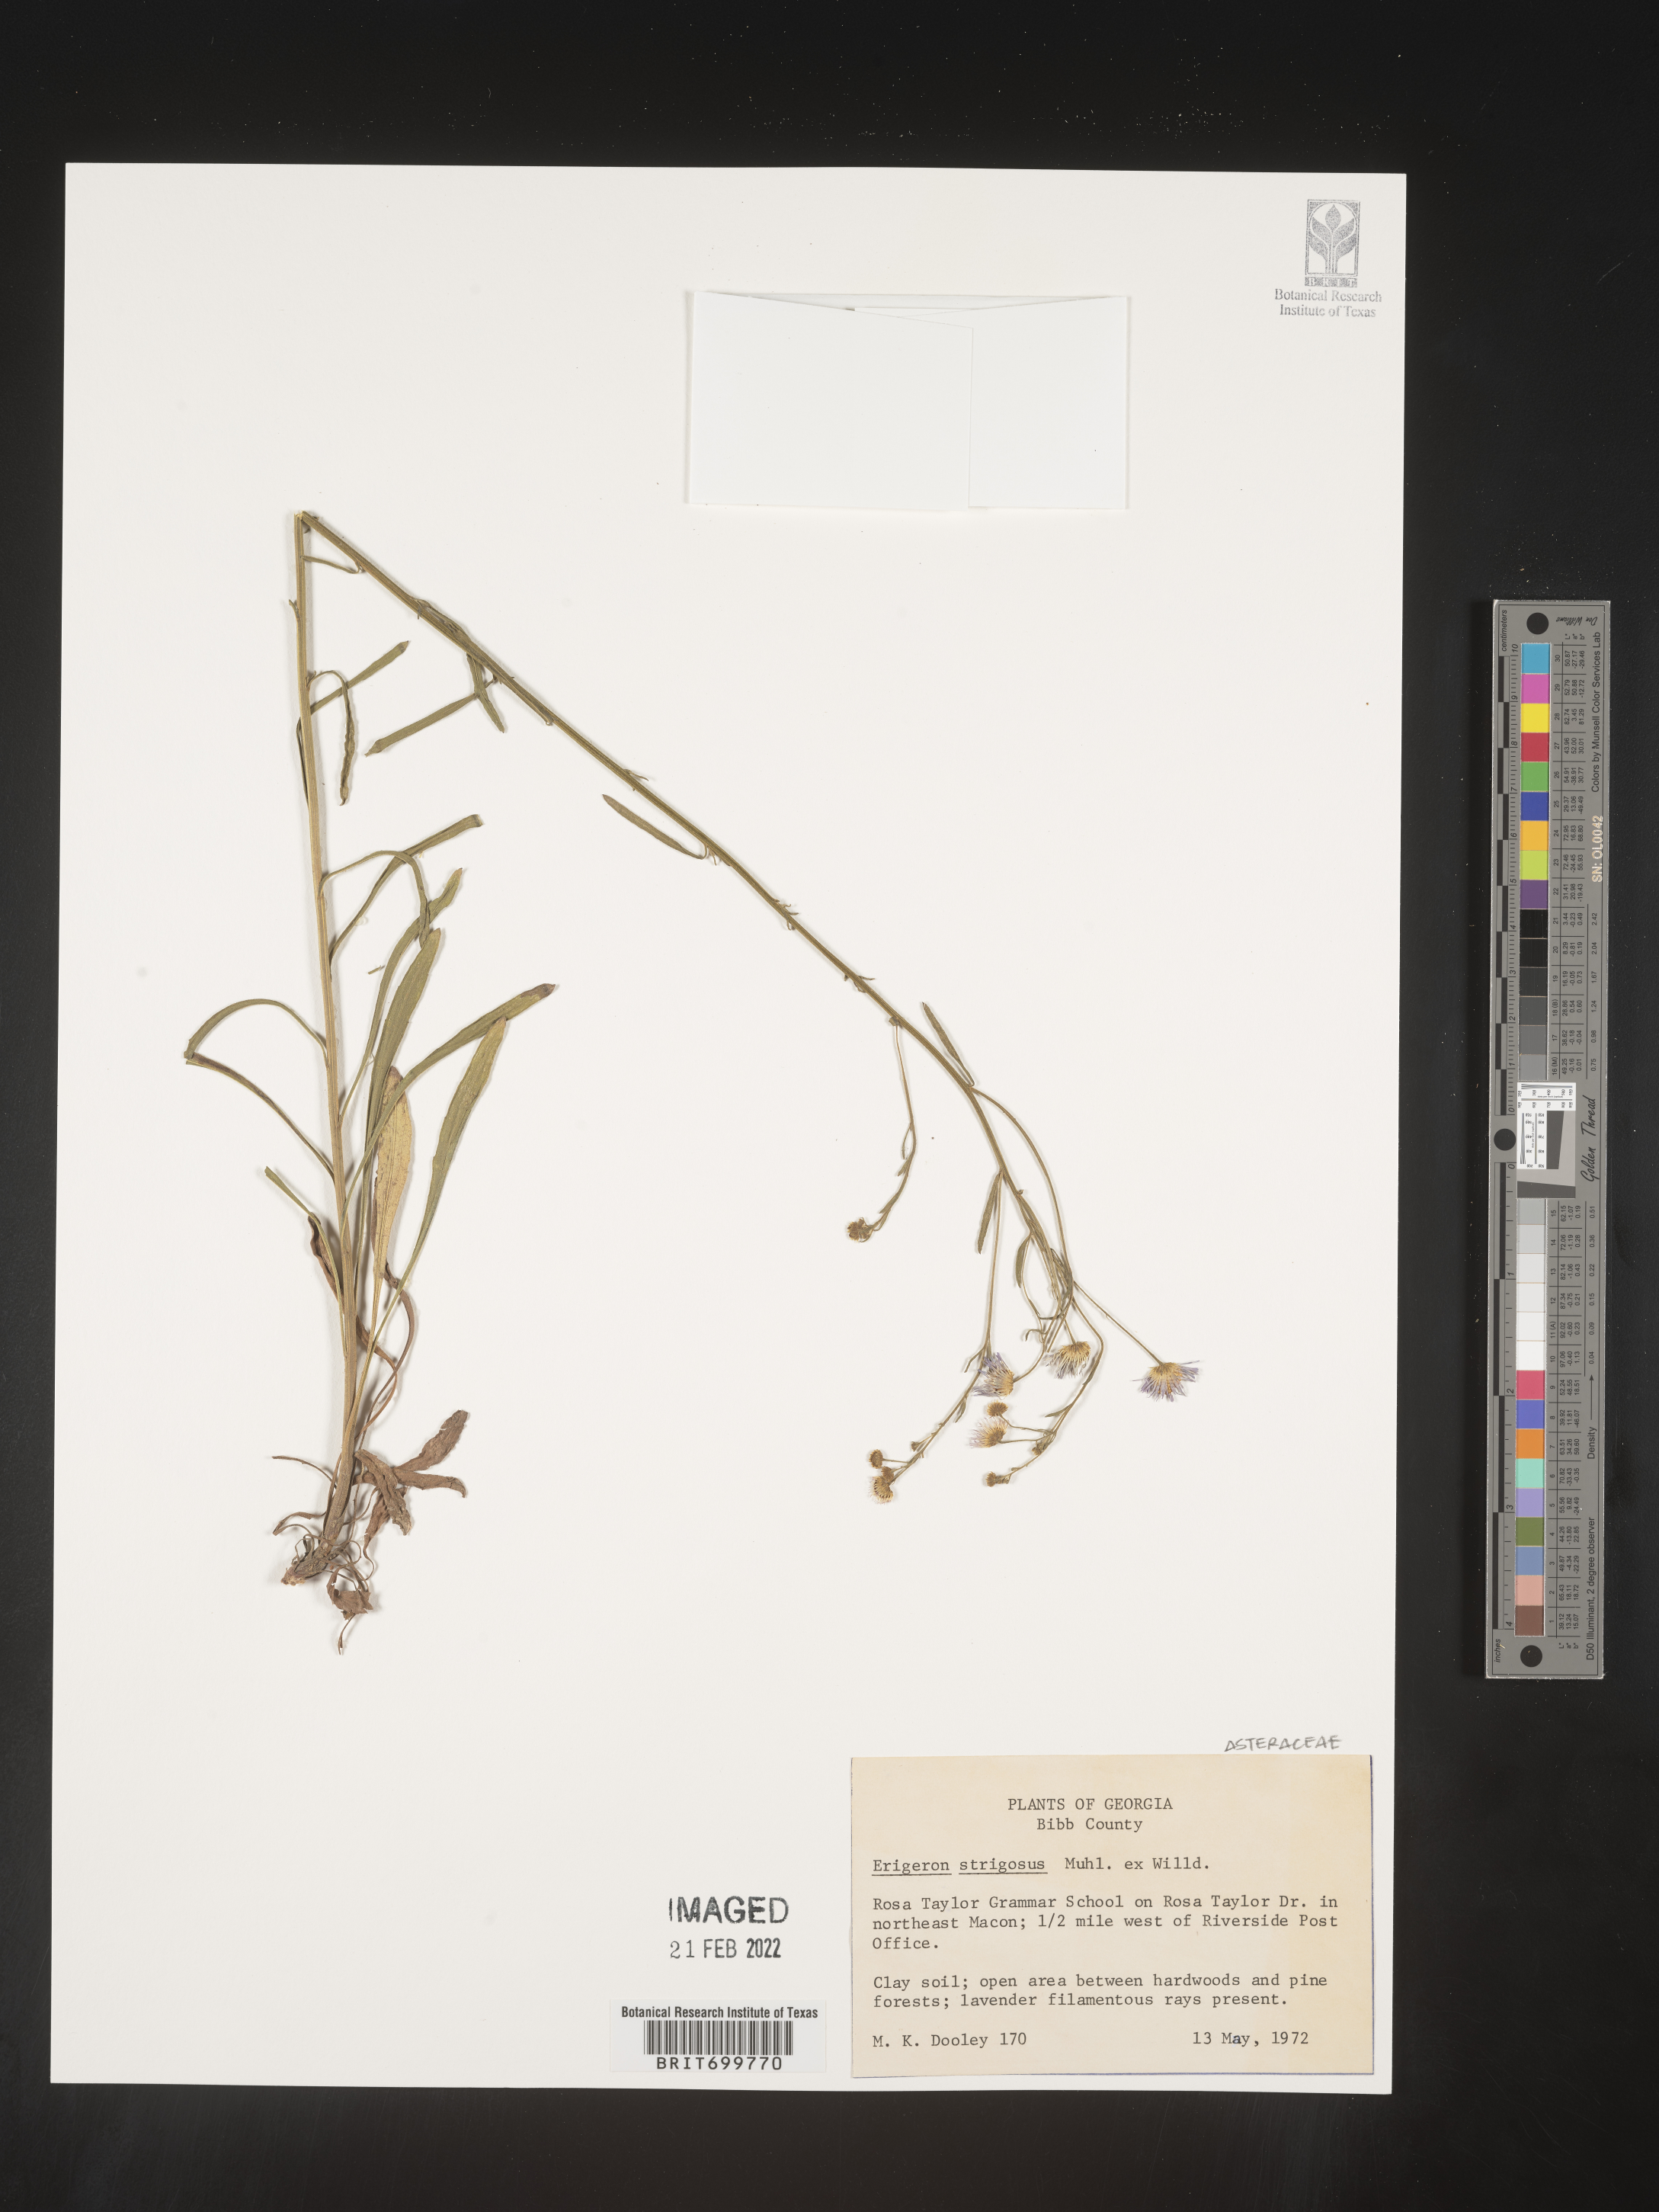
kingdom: Plantae
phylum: Tracheophyta
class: Magnoliopsida
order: Asterales
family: Asteraceae
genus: Erigeron
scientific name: Erigeron strigosus
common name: Common eastern fleabane
